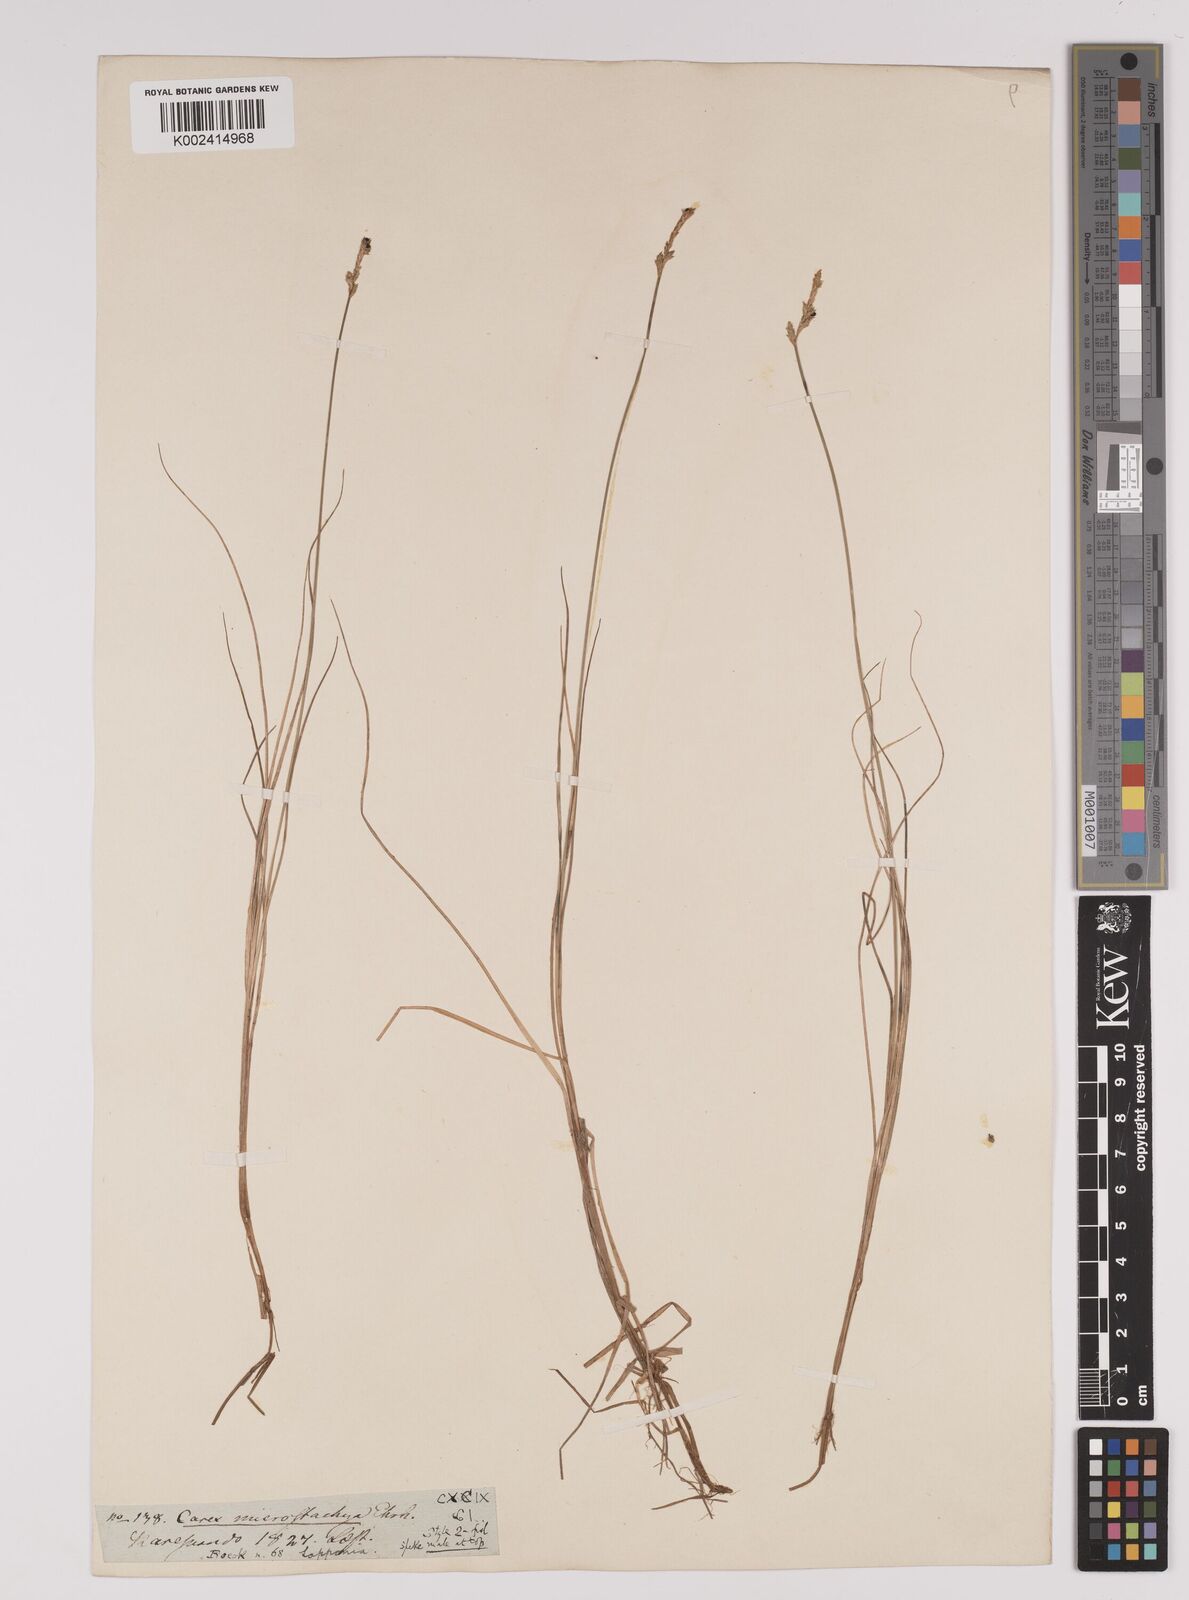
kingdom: Plantae
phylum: Tracheophyta
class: Liliopsida
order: Poales
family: Cyperaceae
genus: Carex
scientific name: Carex dioica
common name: Dioecious sedge
